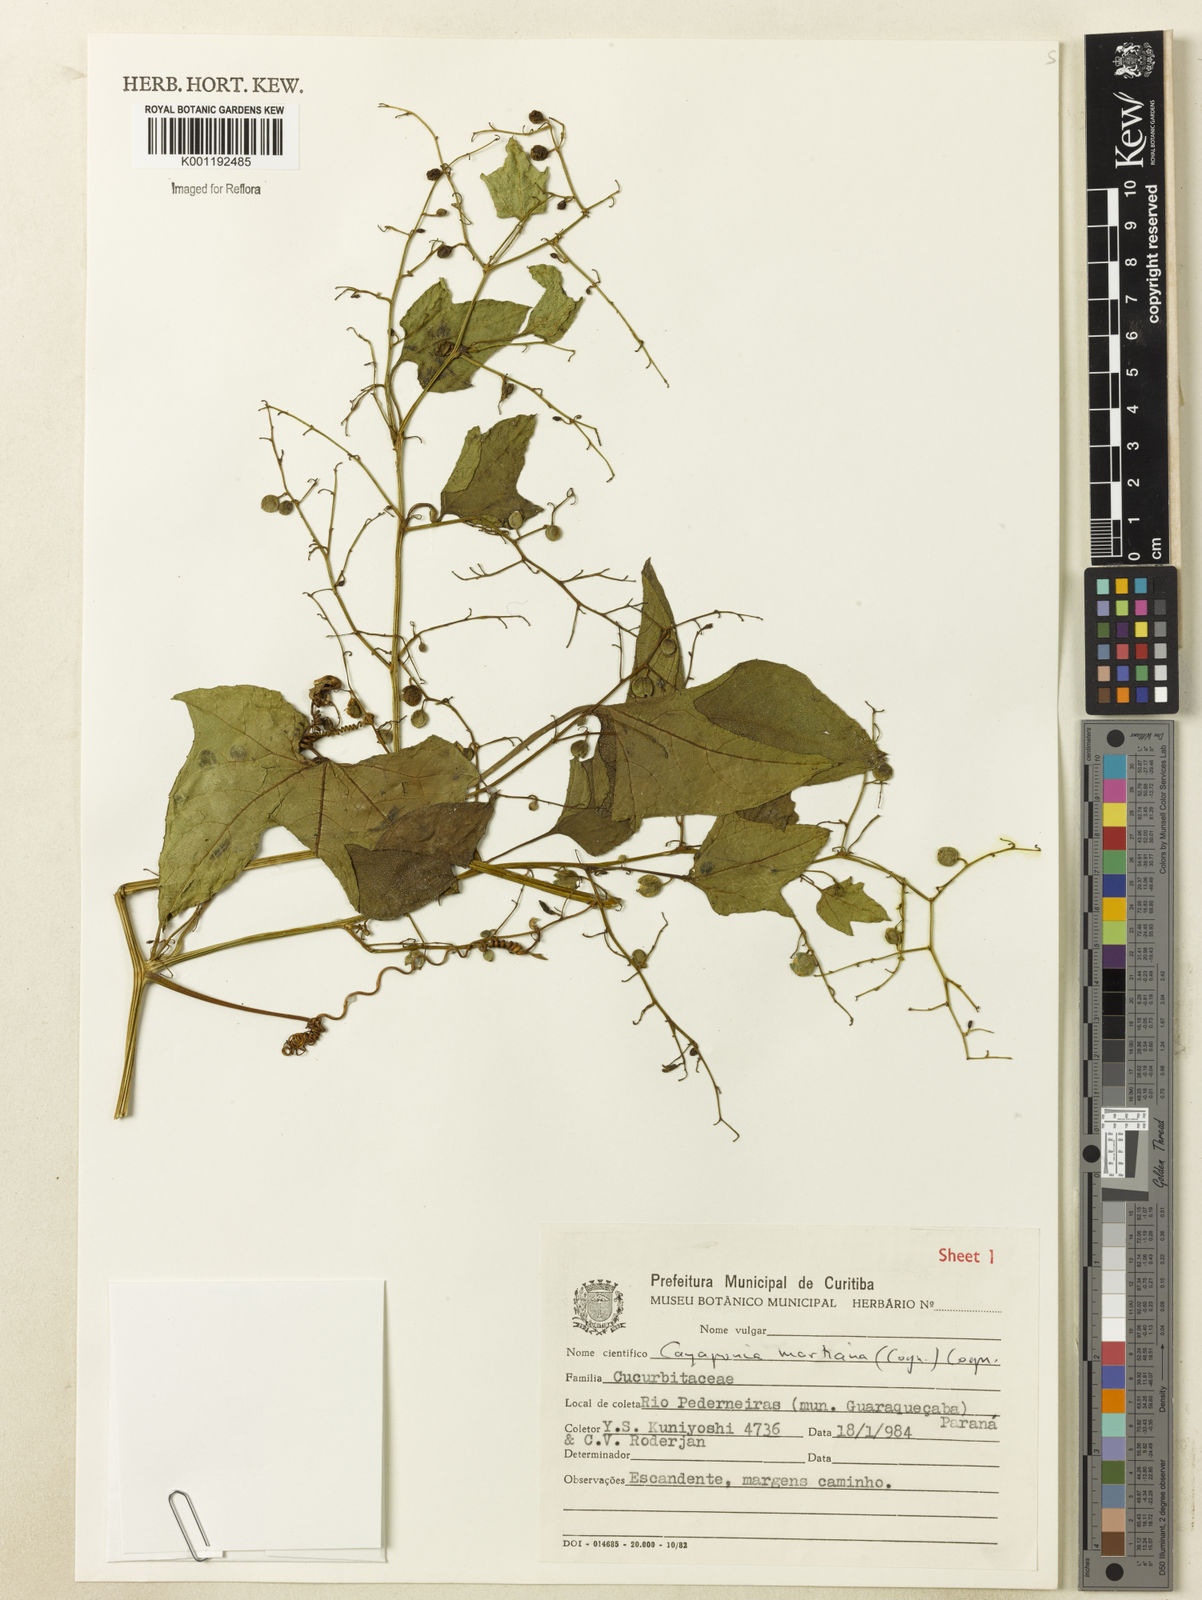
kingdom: Plantae
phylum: Tracheophyta
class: Magnoliopsida
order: Cucurbitales
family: Cucurbitaceae
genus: Cayaponia
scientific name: Cayaponia martiana
